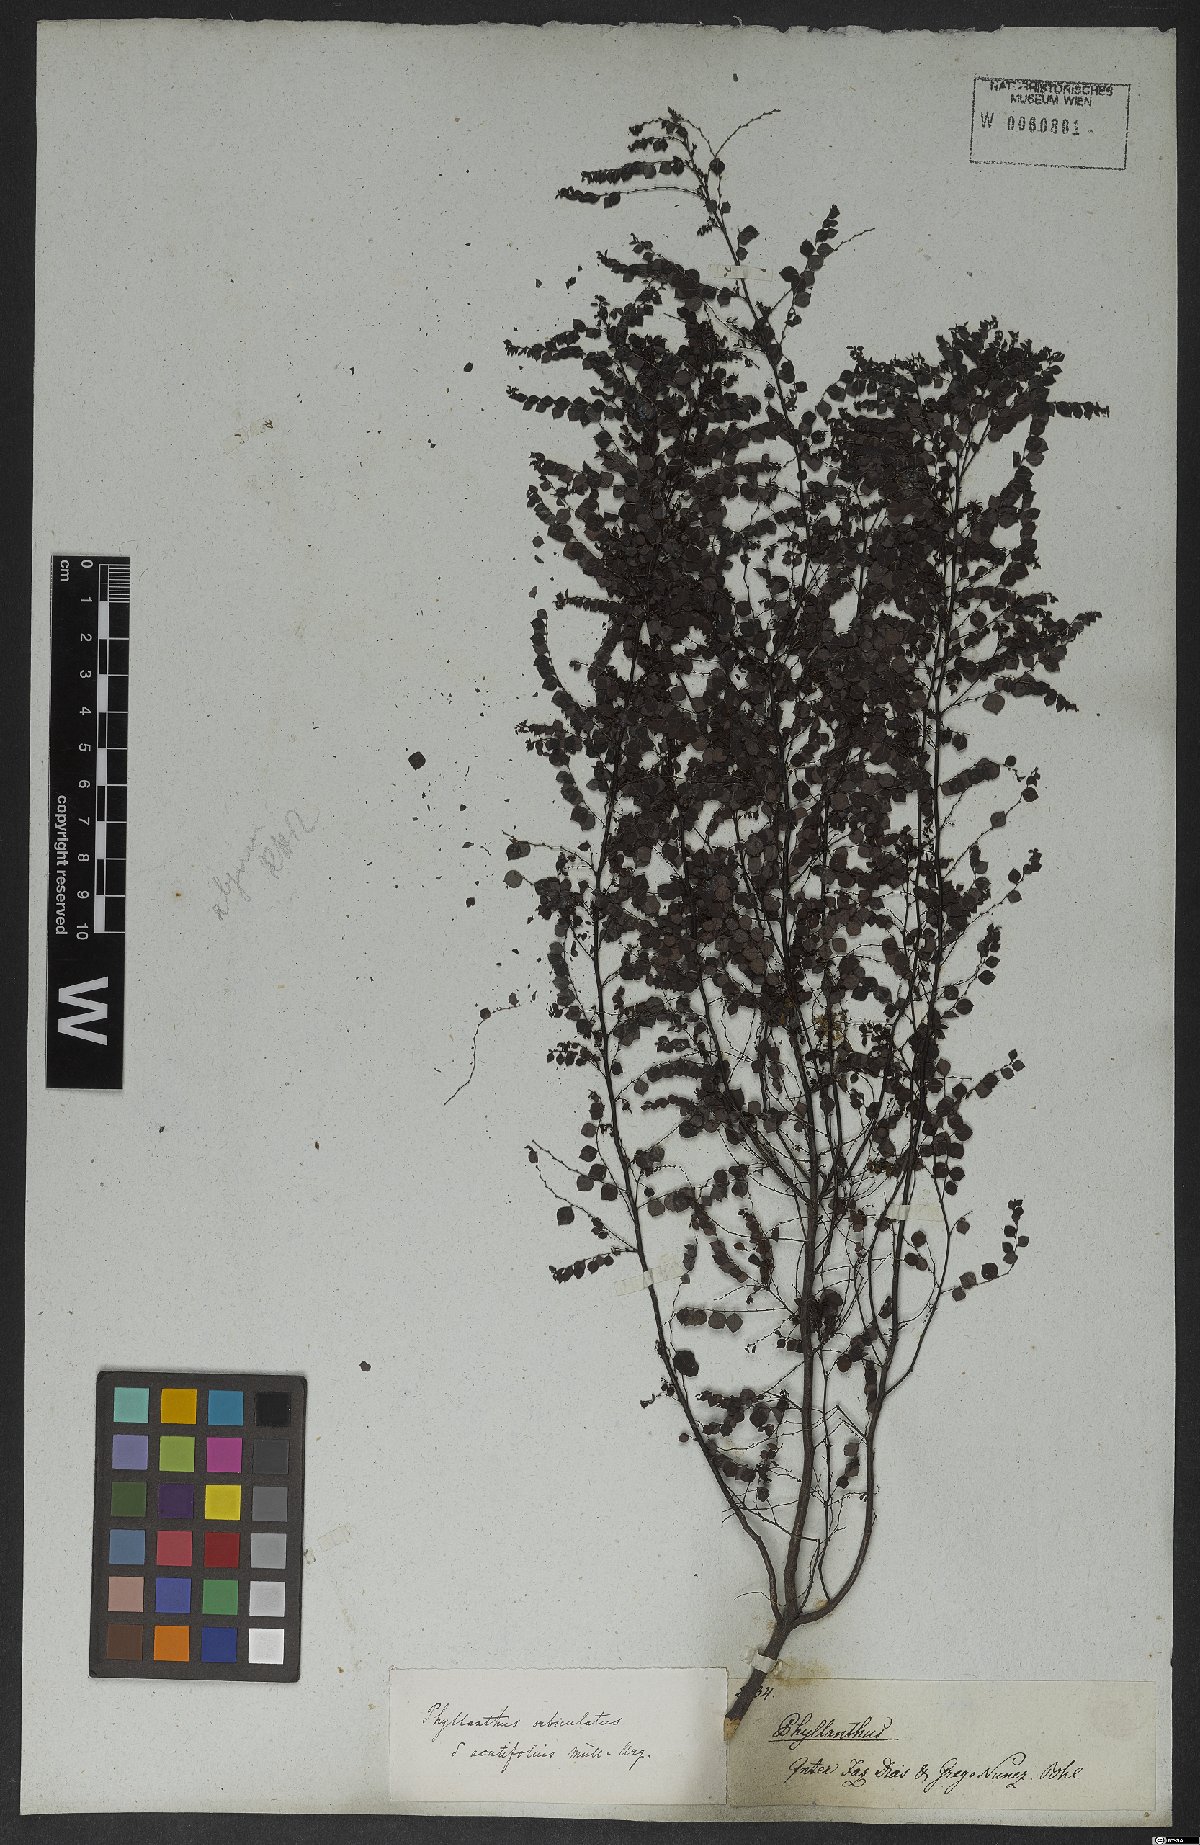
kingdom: Plantae
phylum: Tracheophyta
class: Magnoliopsida
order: Malpighiales
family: Phyllanthaceae
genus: Phyllanthus
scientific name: Phyllanthus orbiculatus
